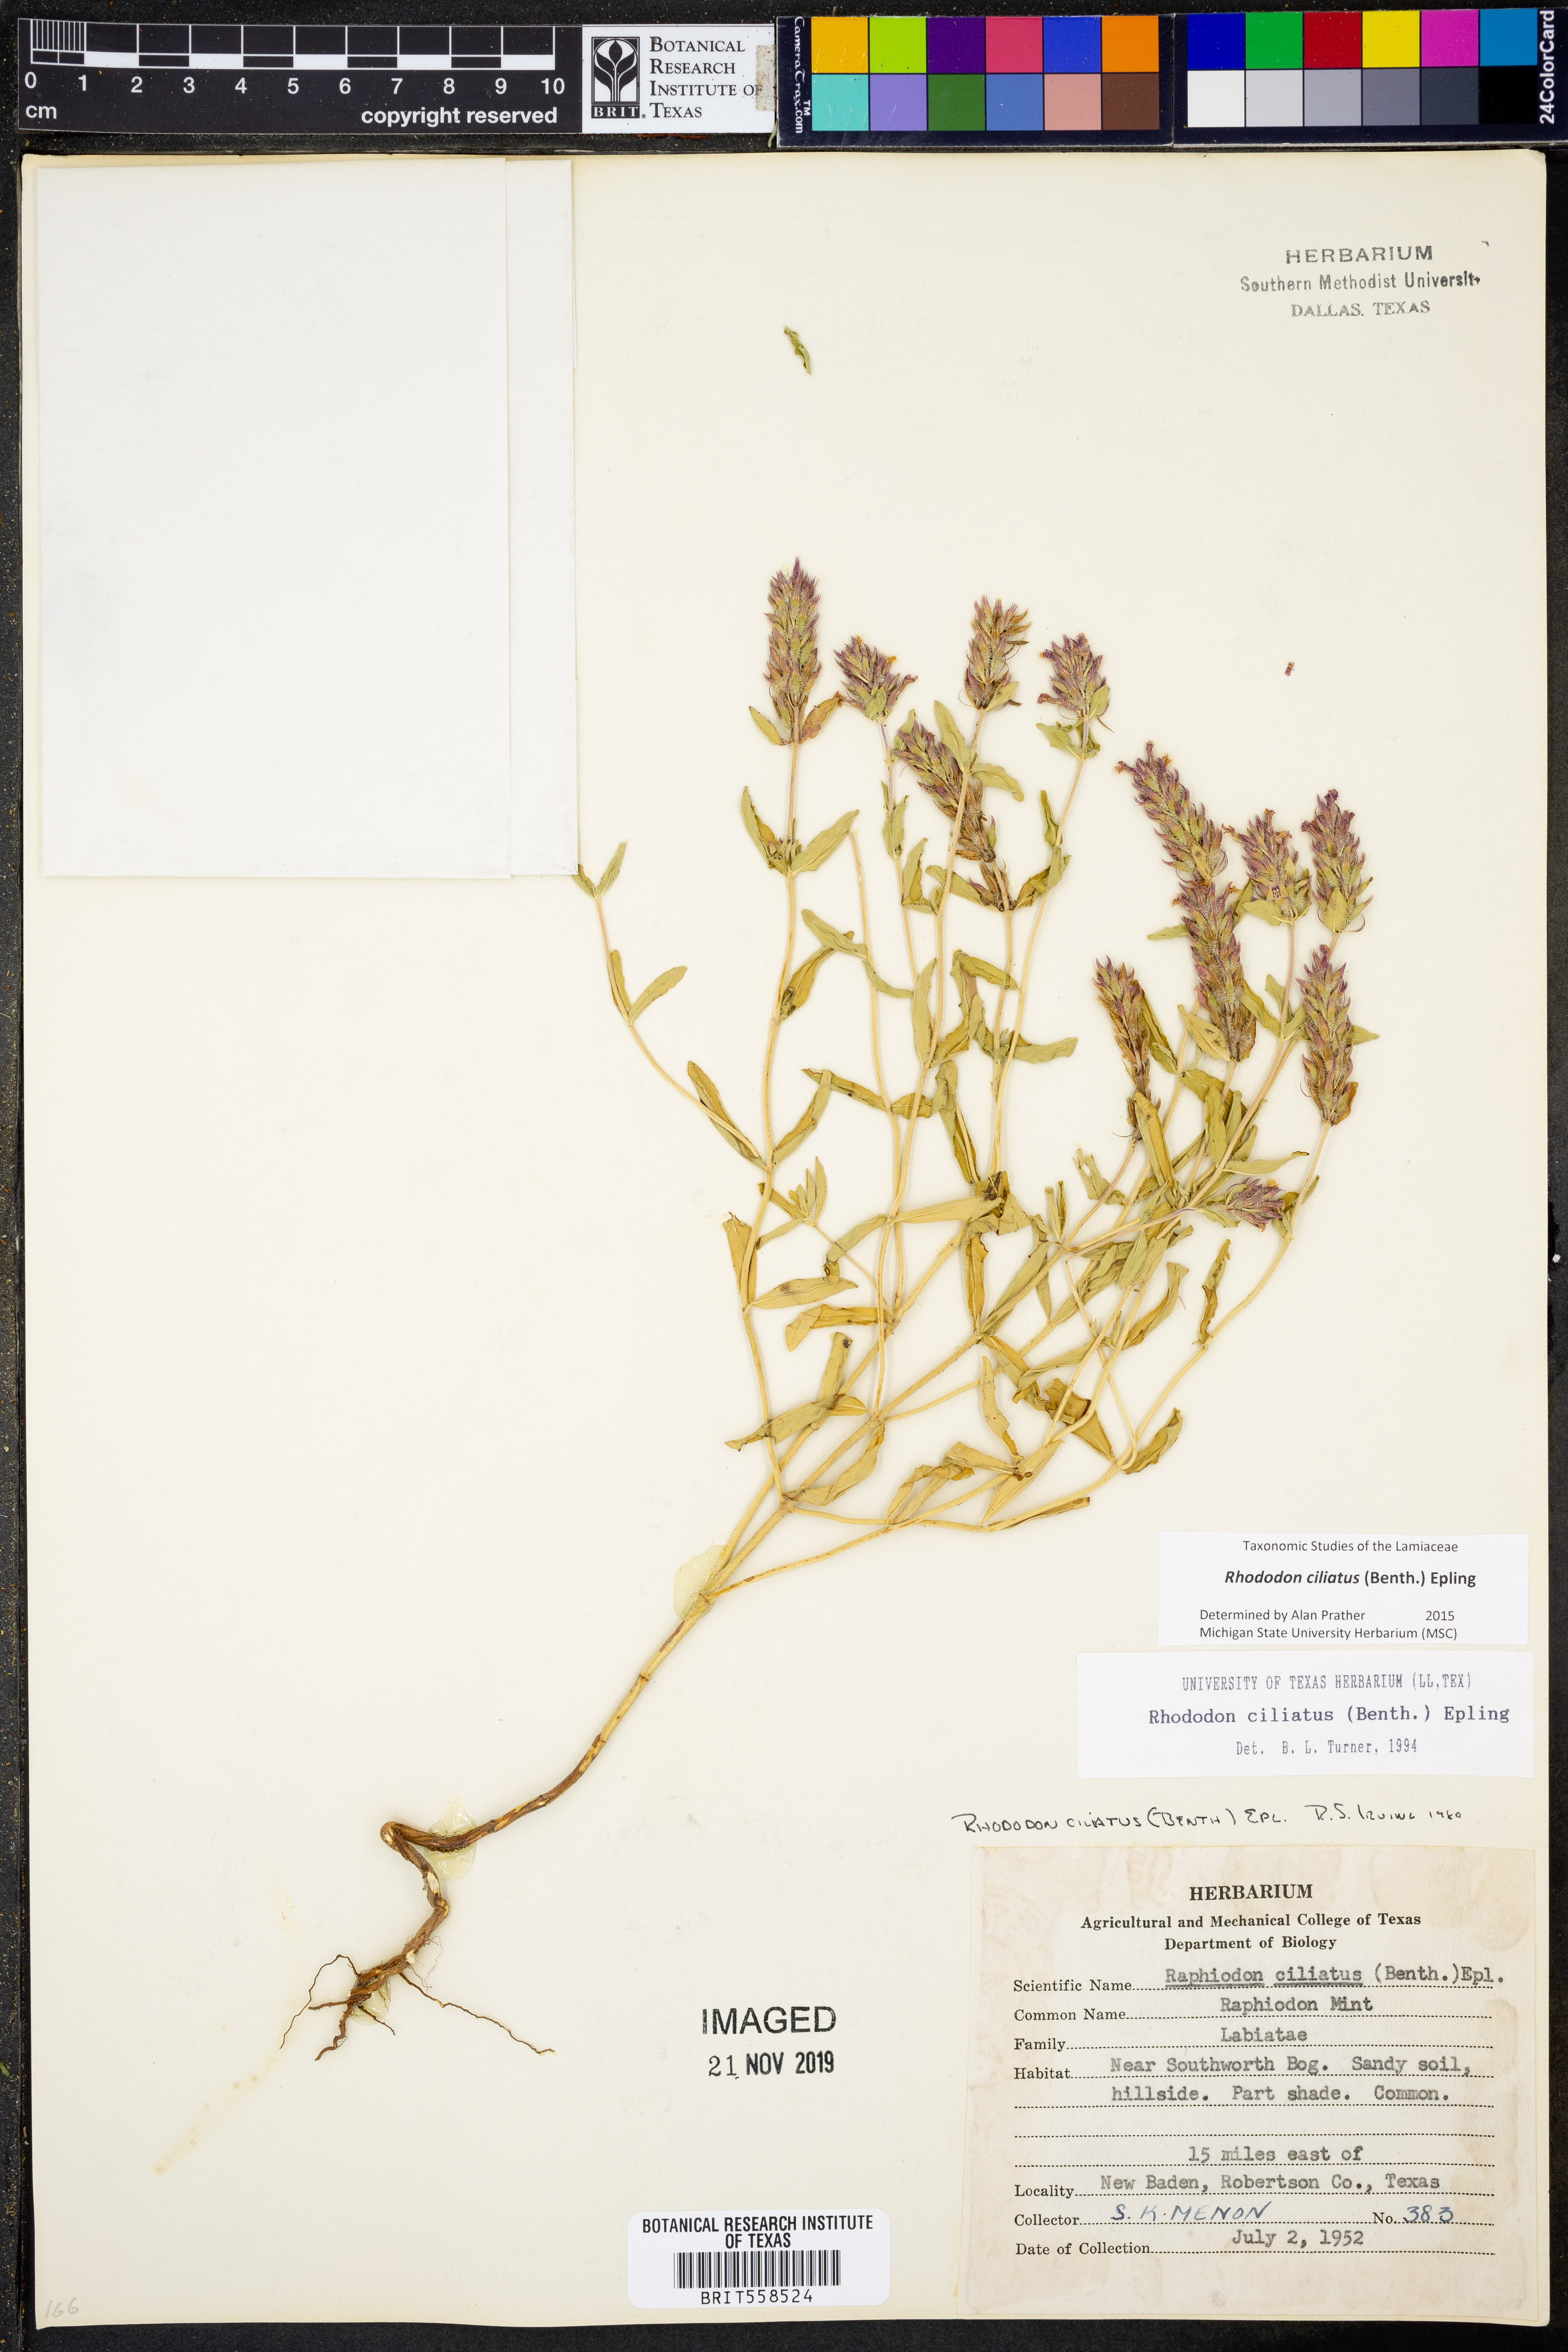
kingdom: Plantae
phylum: Tracheophyta
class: Magnoliopsida
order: Lamiales
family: Lamiaceae
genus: Rhododon
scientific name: Rhododon ciliatus
